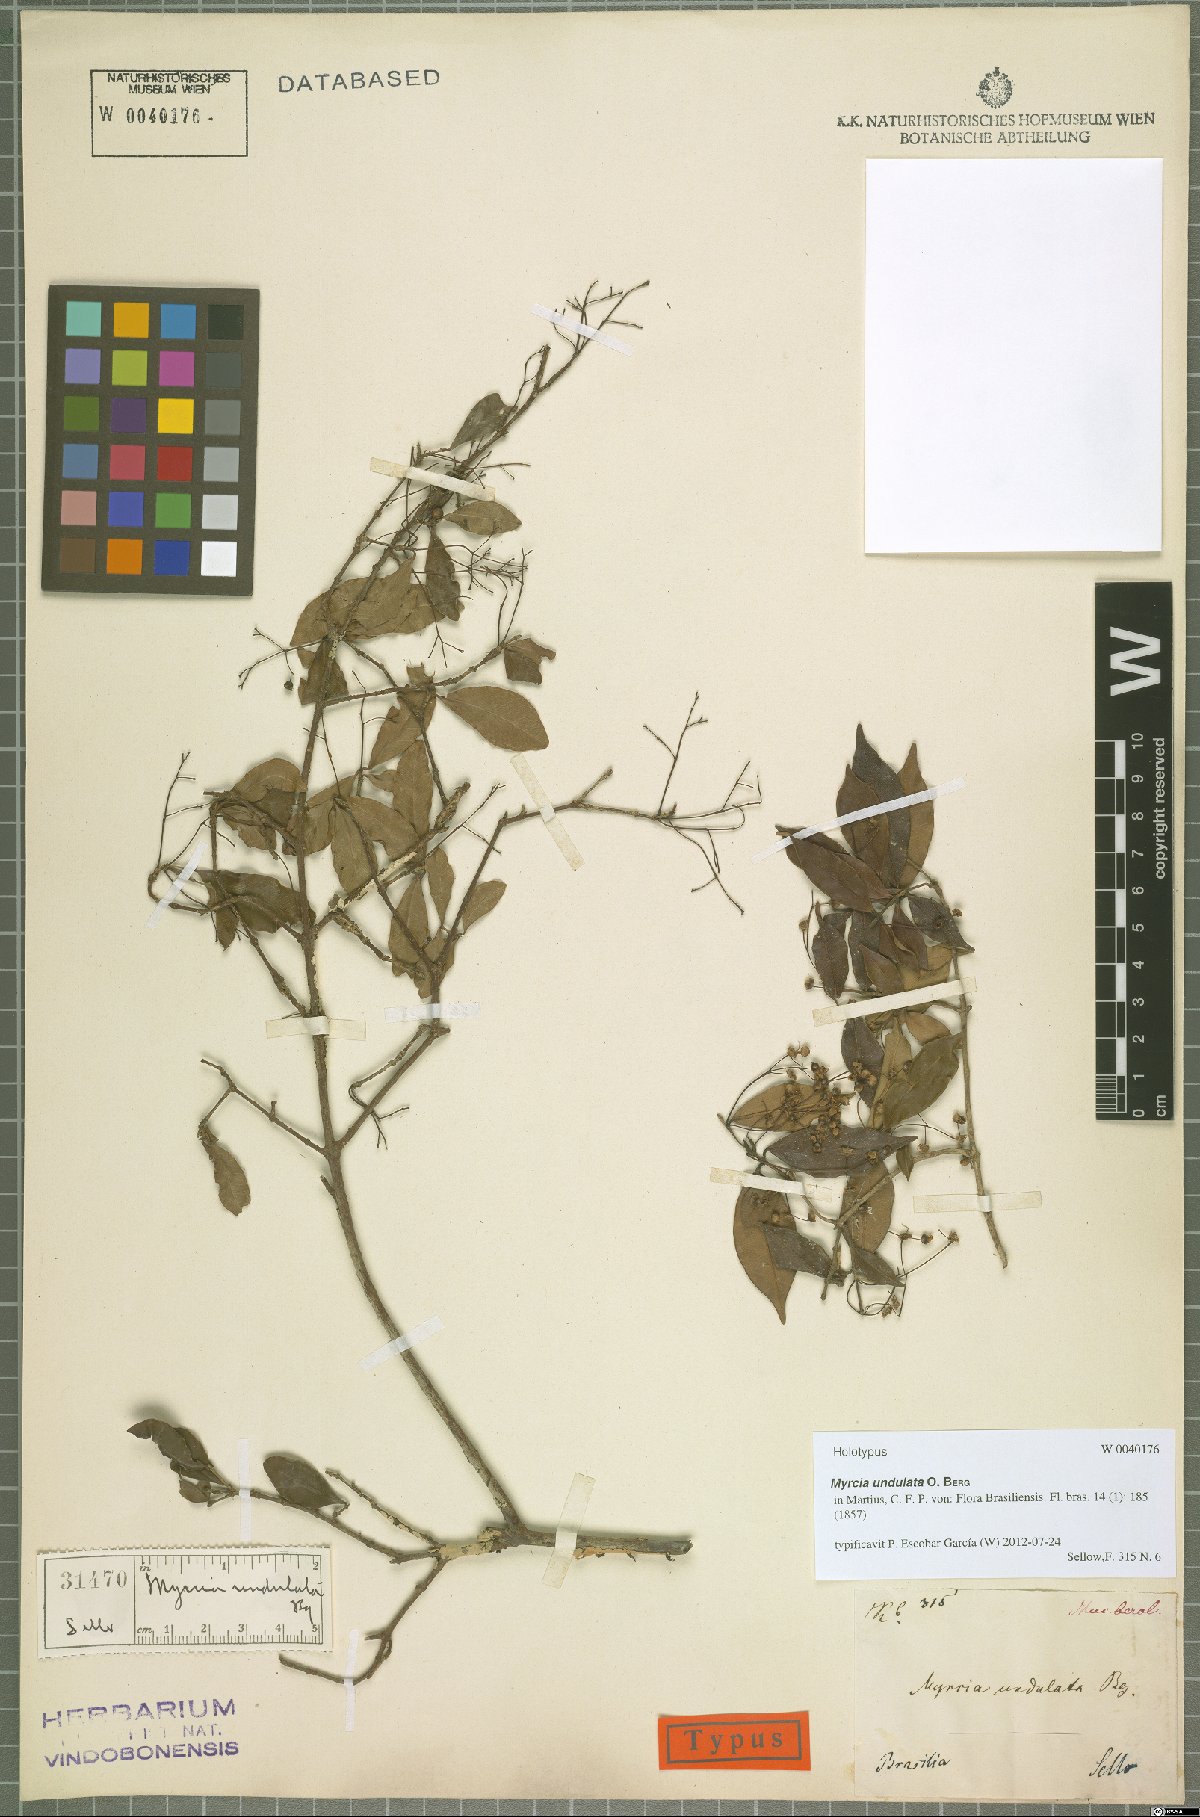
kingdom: Plantae
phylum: Tracheophyta
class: Magnoliopsida
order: Myrtales
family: Myrtaceae
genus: Myrcia
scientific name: Myrcia undulata
